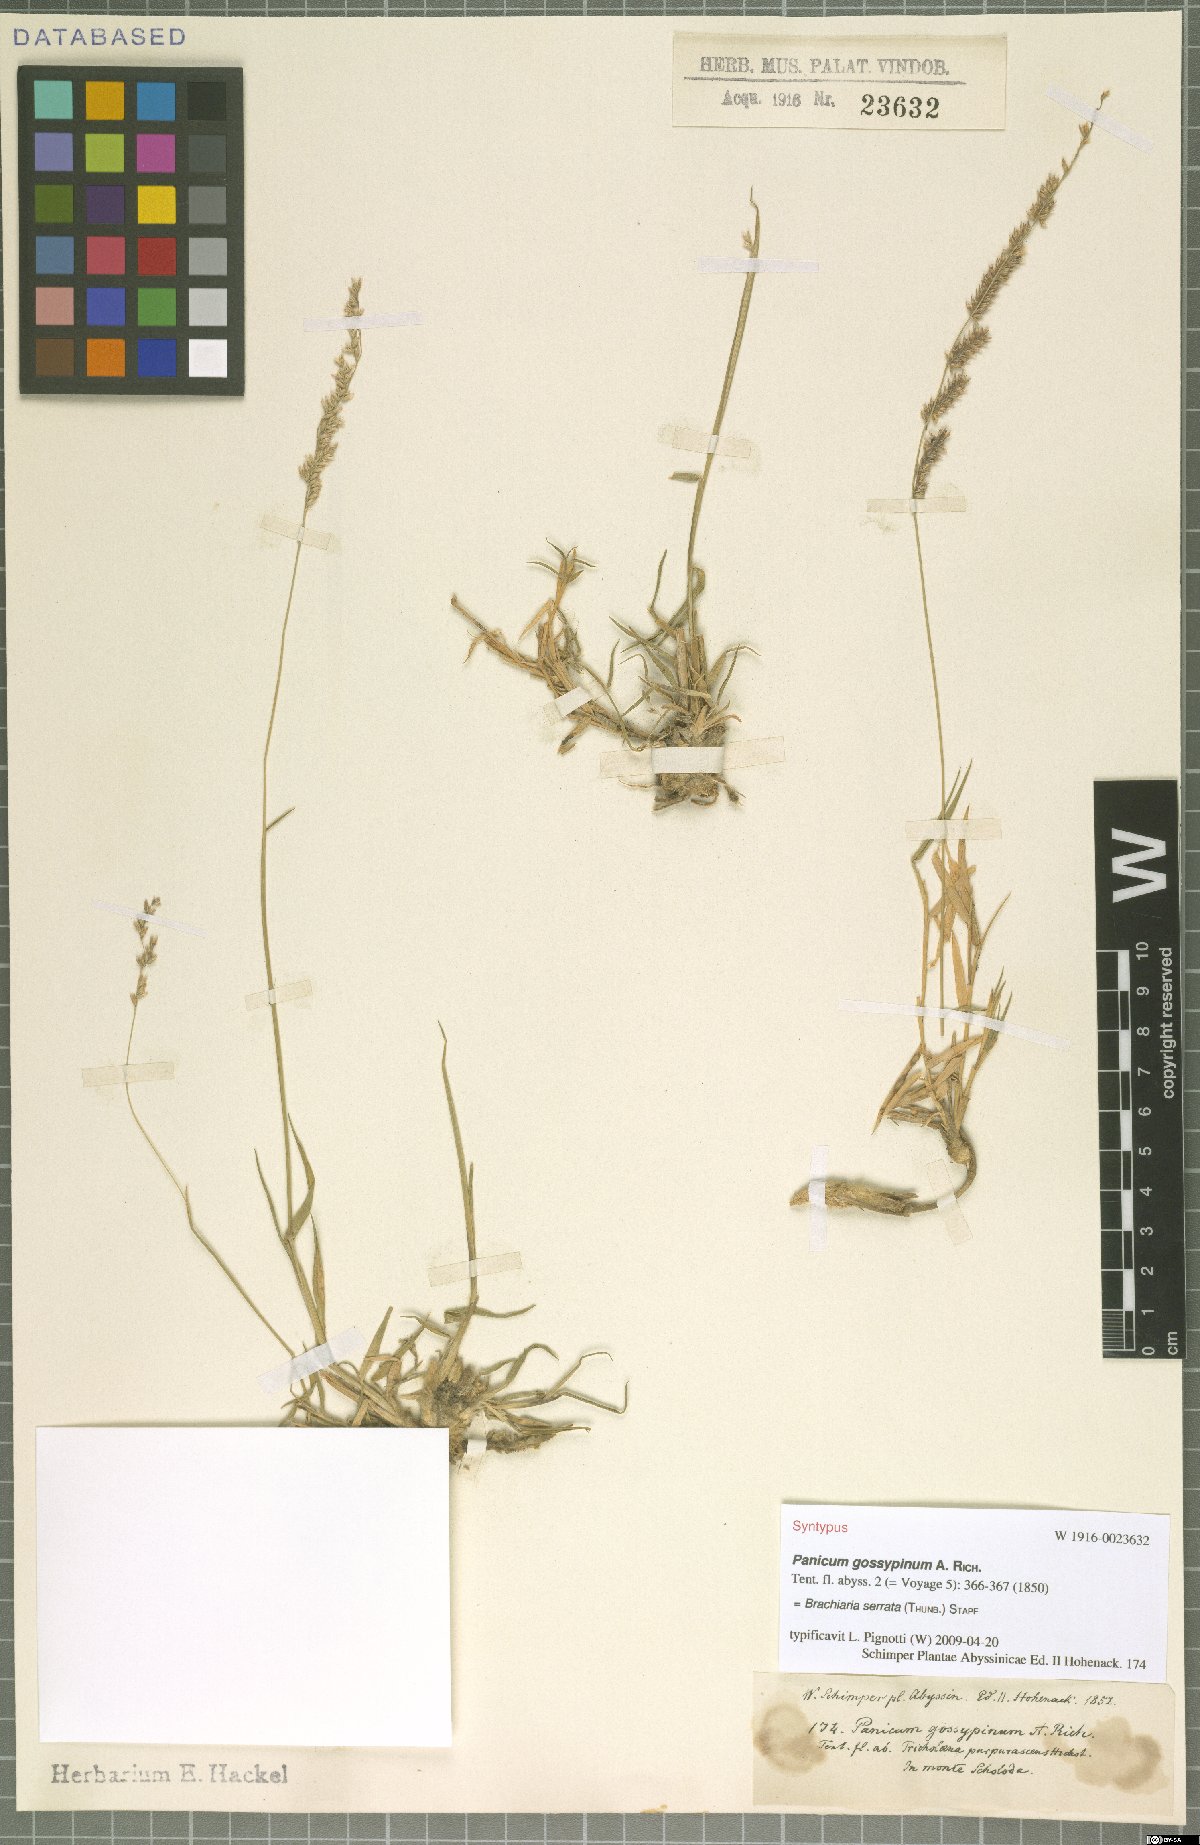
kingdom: Plantae
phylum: Tracheophyta
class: Liliopsida
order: Poales
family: Poaceae
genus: Urochloa
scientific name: Urochloa serrata
